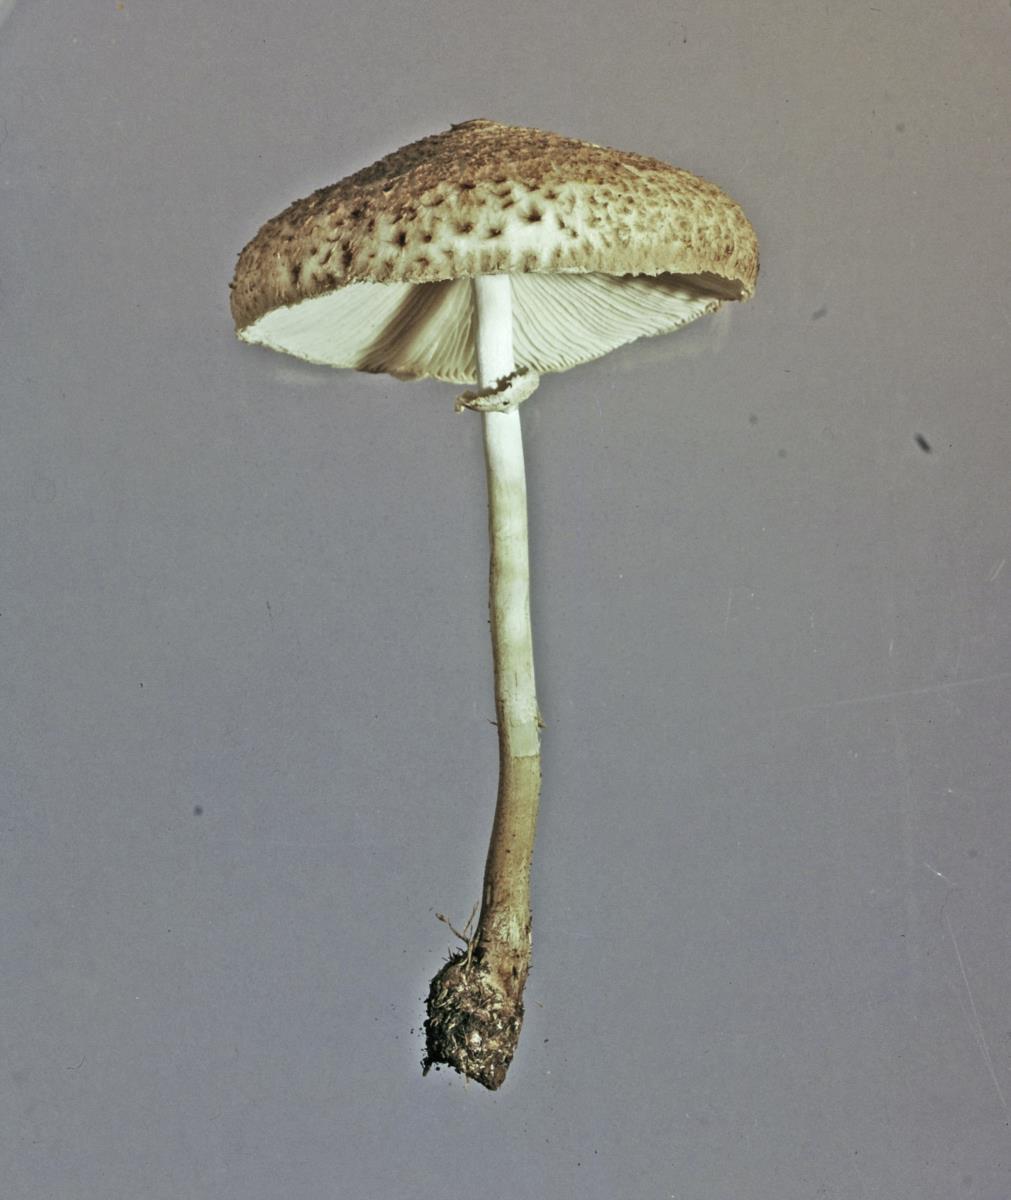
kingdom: Fungi
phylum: Basidiomycota
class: Agaricomycetes
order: Agaricales
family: Agaricaceae
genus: Macrolepiota
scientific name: Macrolepiota clelandii
